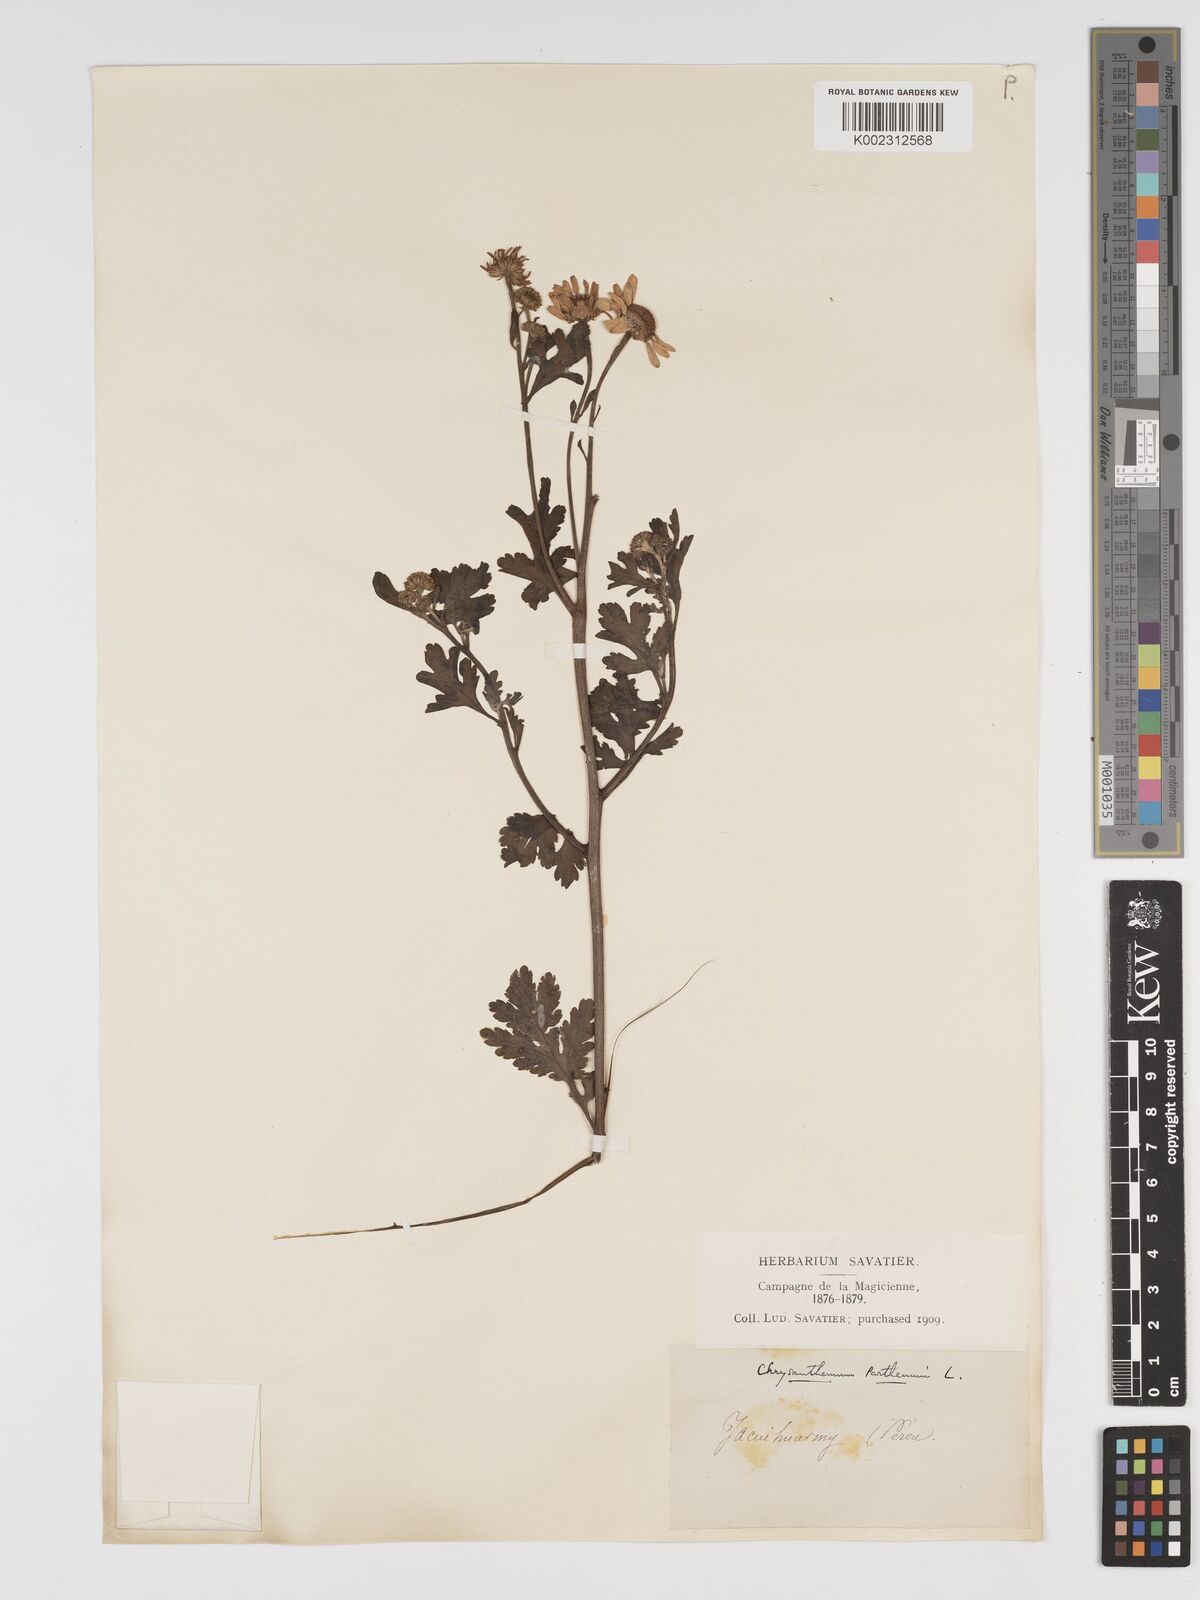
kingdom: Plantae
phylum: Tracheophyta
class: Magnoliopsida
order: Asterales
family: Asteraceae
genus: Tanacetum
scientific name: Tanacetum parthenium
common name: Feverfew
